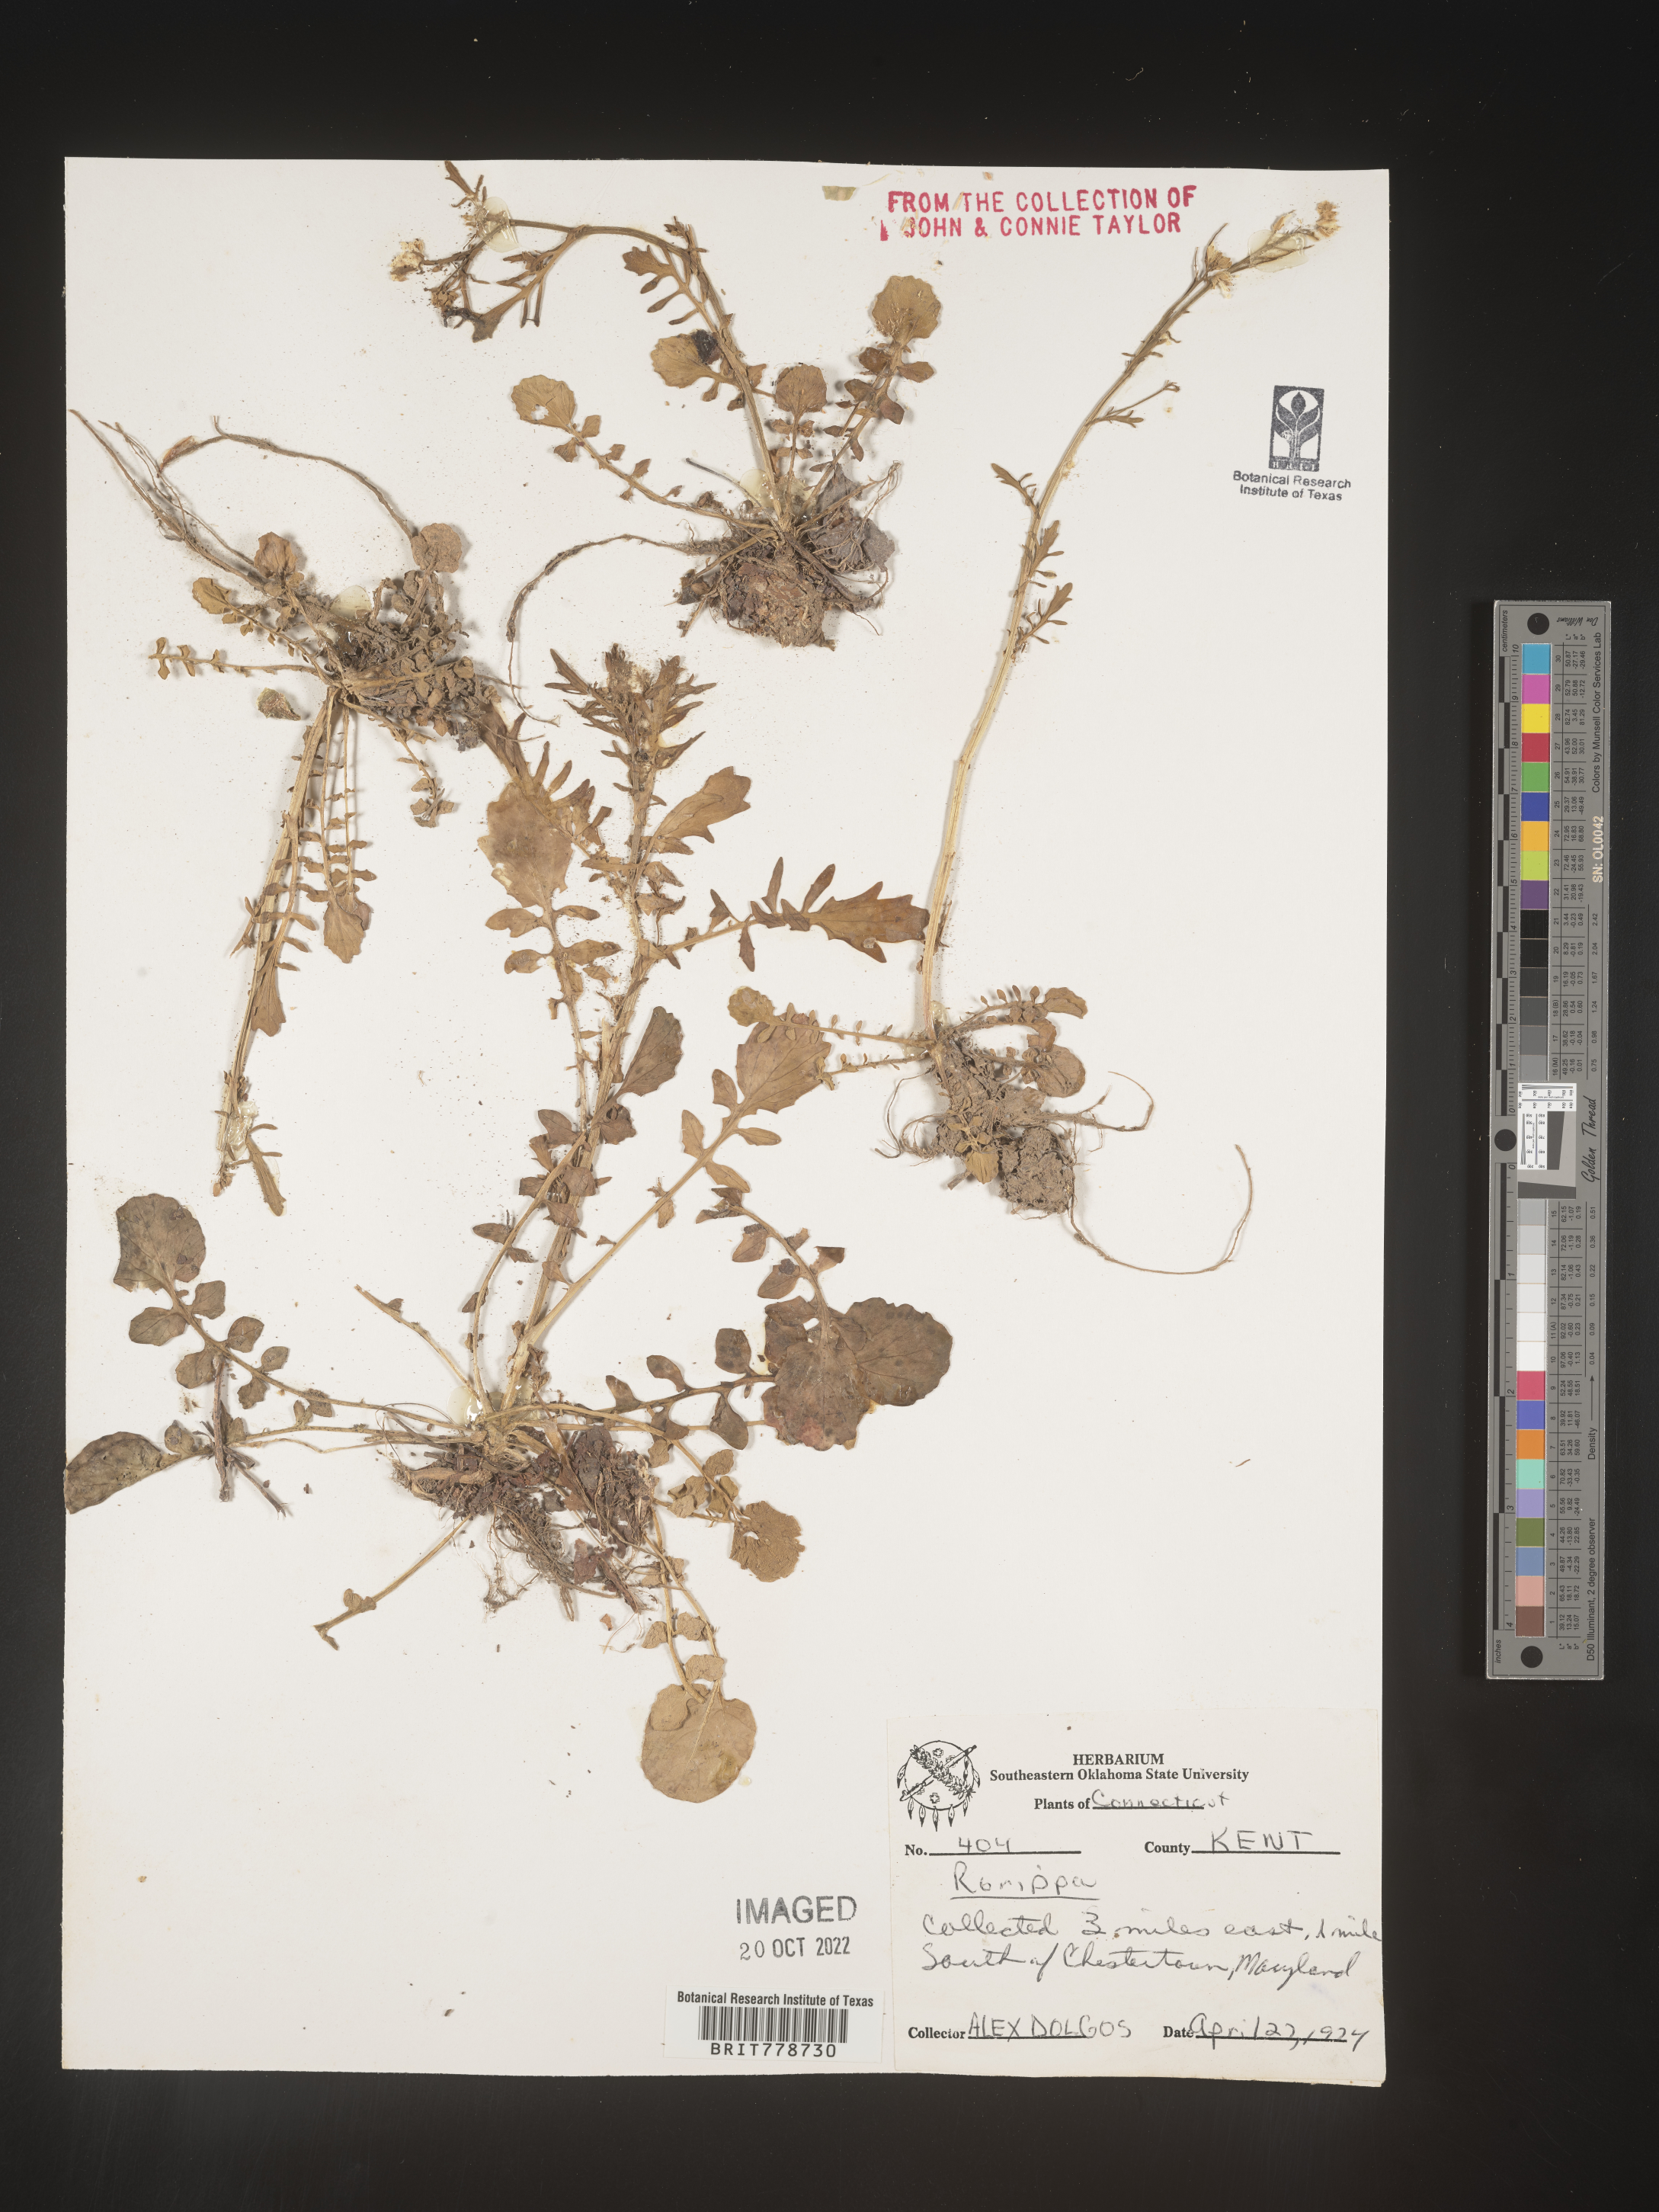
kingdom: Plantae
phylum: Tracheophyta
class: Magnoliopsida
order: Brassicales
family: Brassicaceae
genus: Rorippa
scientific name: Rorippa
